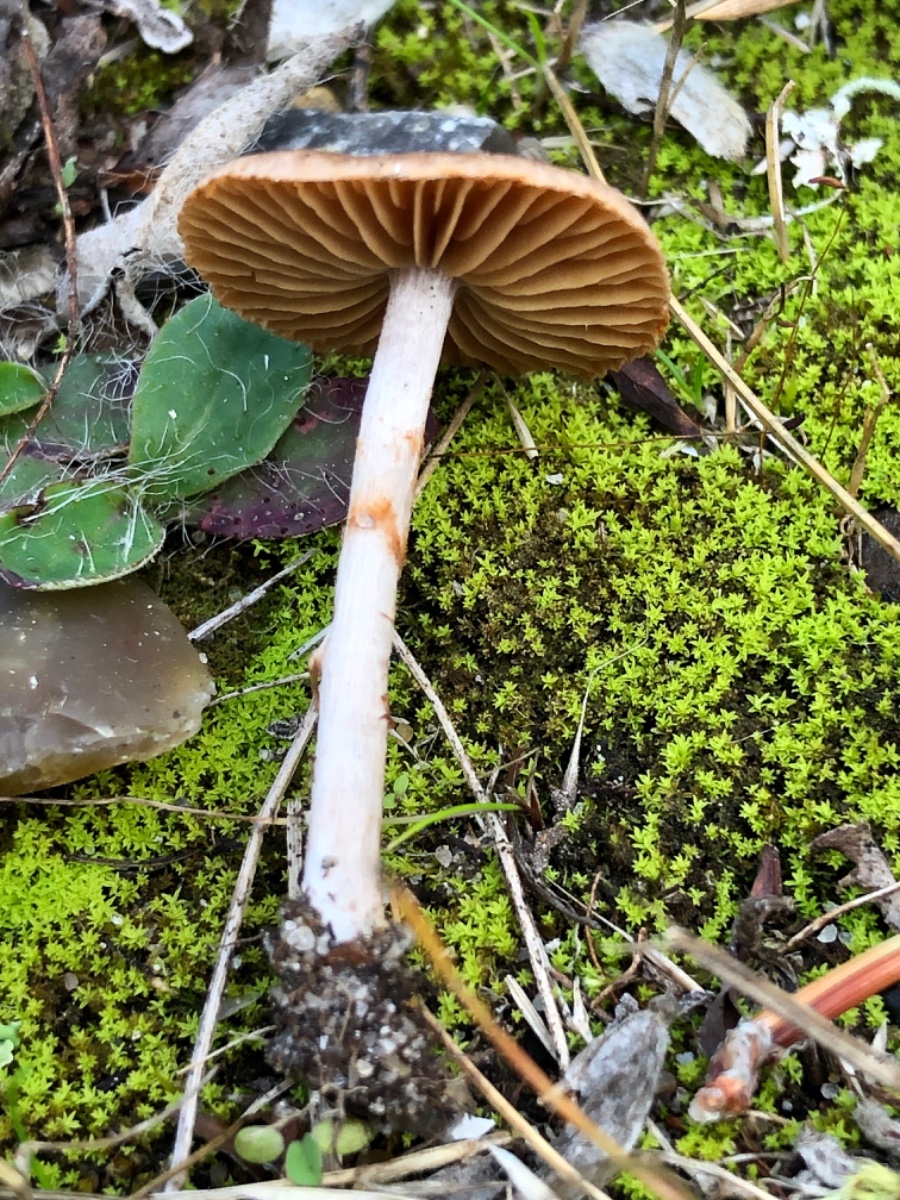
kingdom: Fungi
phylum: Basidiomycota
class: Agaricomycetes
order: Agaricales
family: Cortinariaceae
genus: Cortinarius
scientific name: Cortinarius
